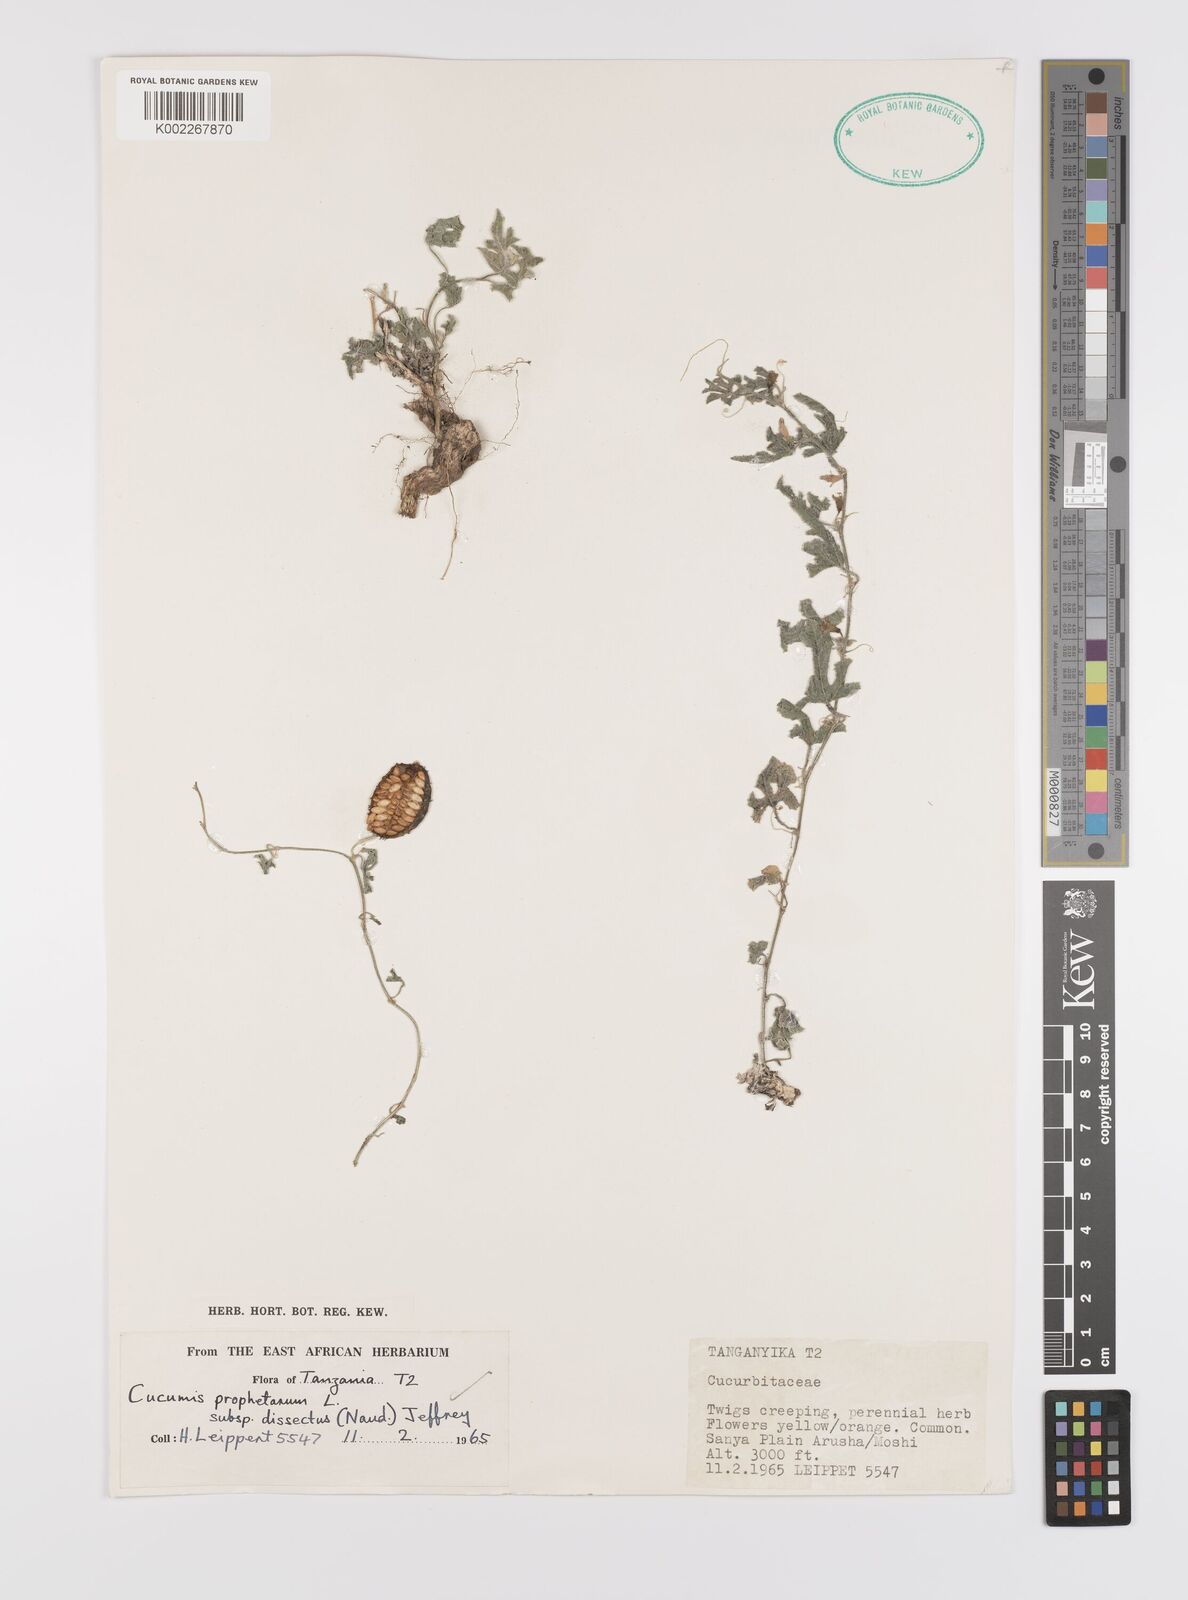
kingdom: Plantae
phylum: Tracheophyta
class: Magnoliopsida
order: Cucurbitales
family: Cucurbitaceae
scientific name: Cucurbitaceae
